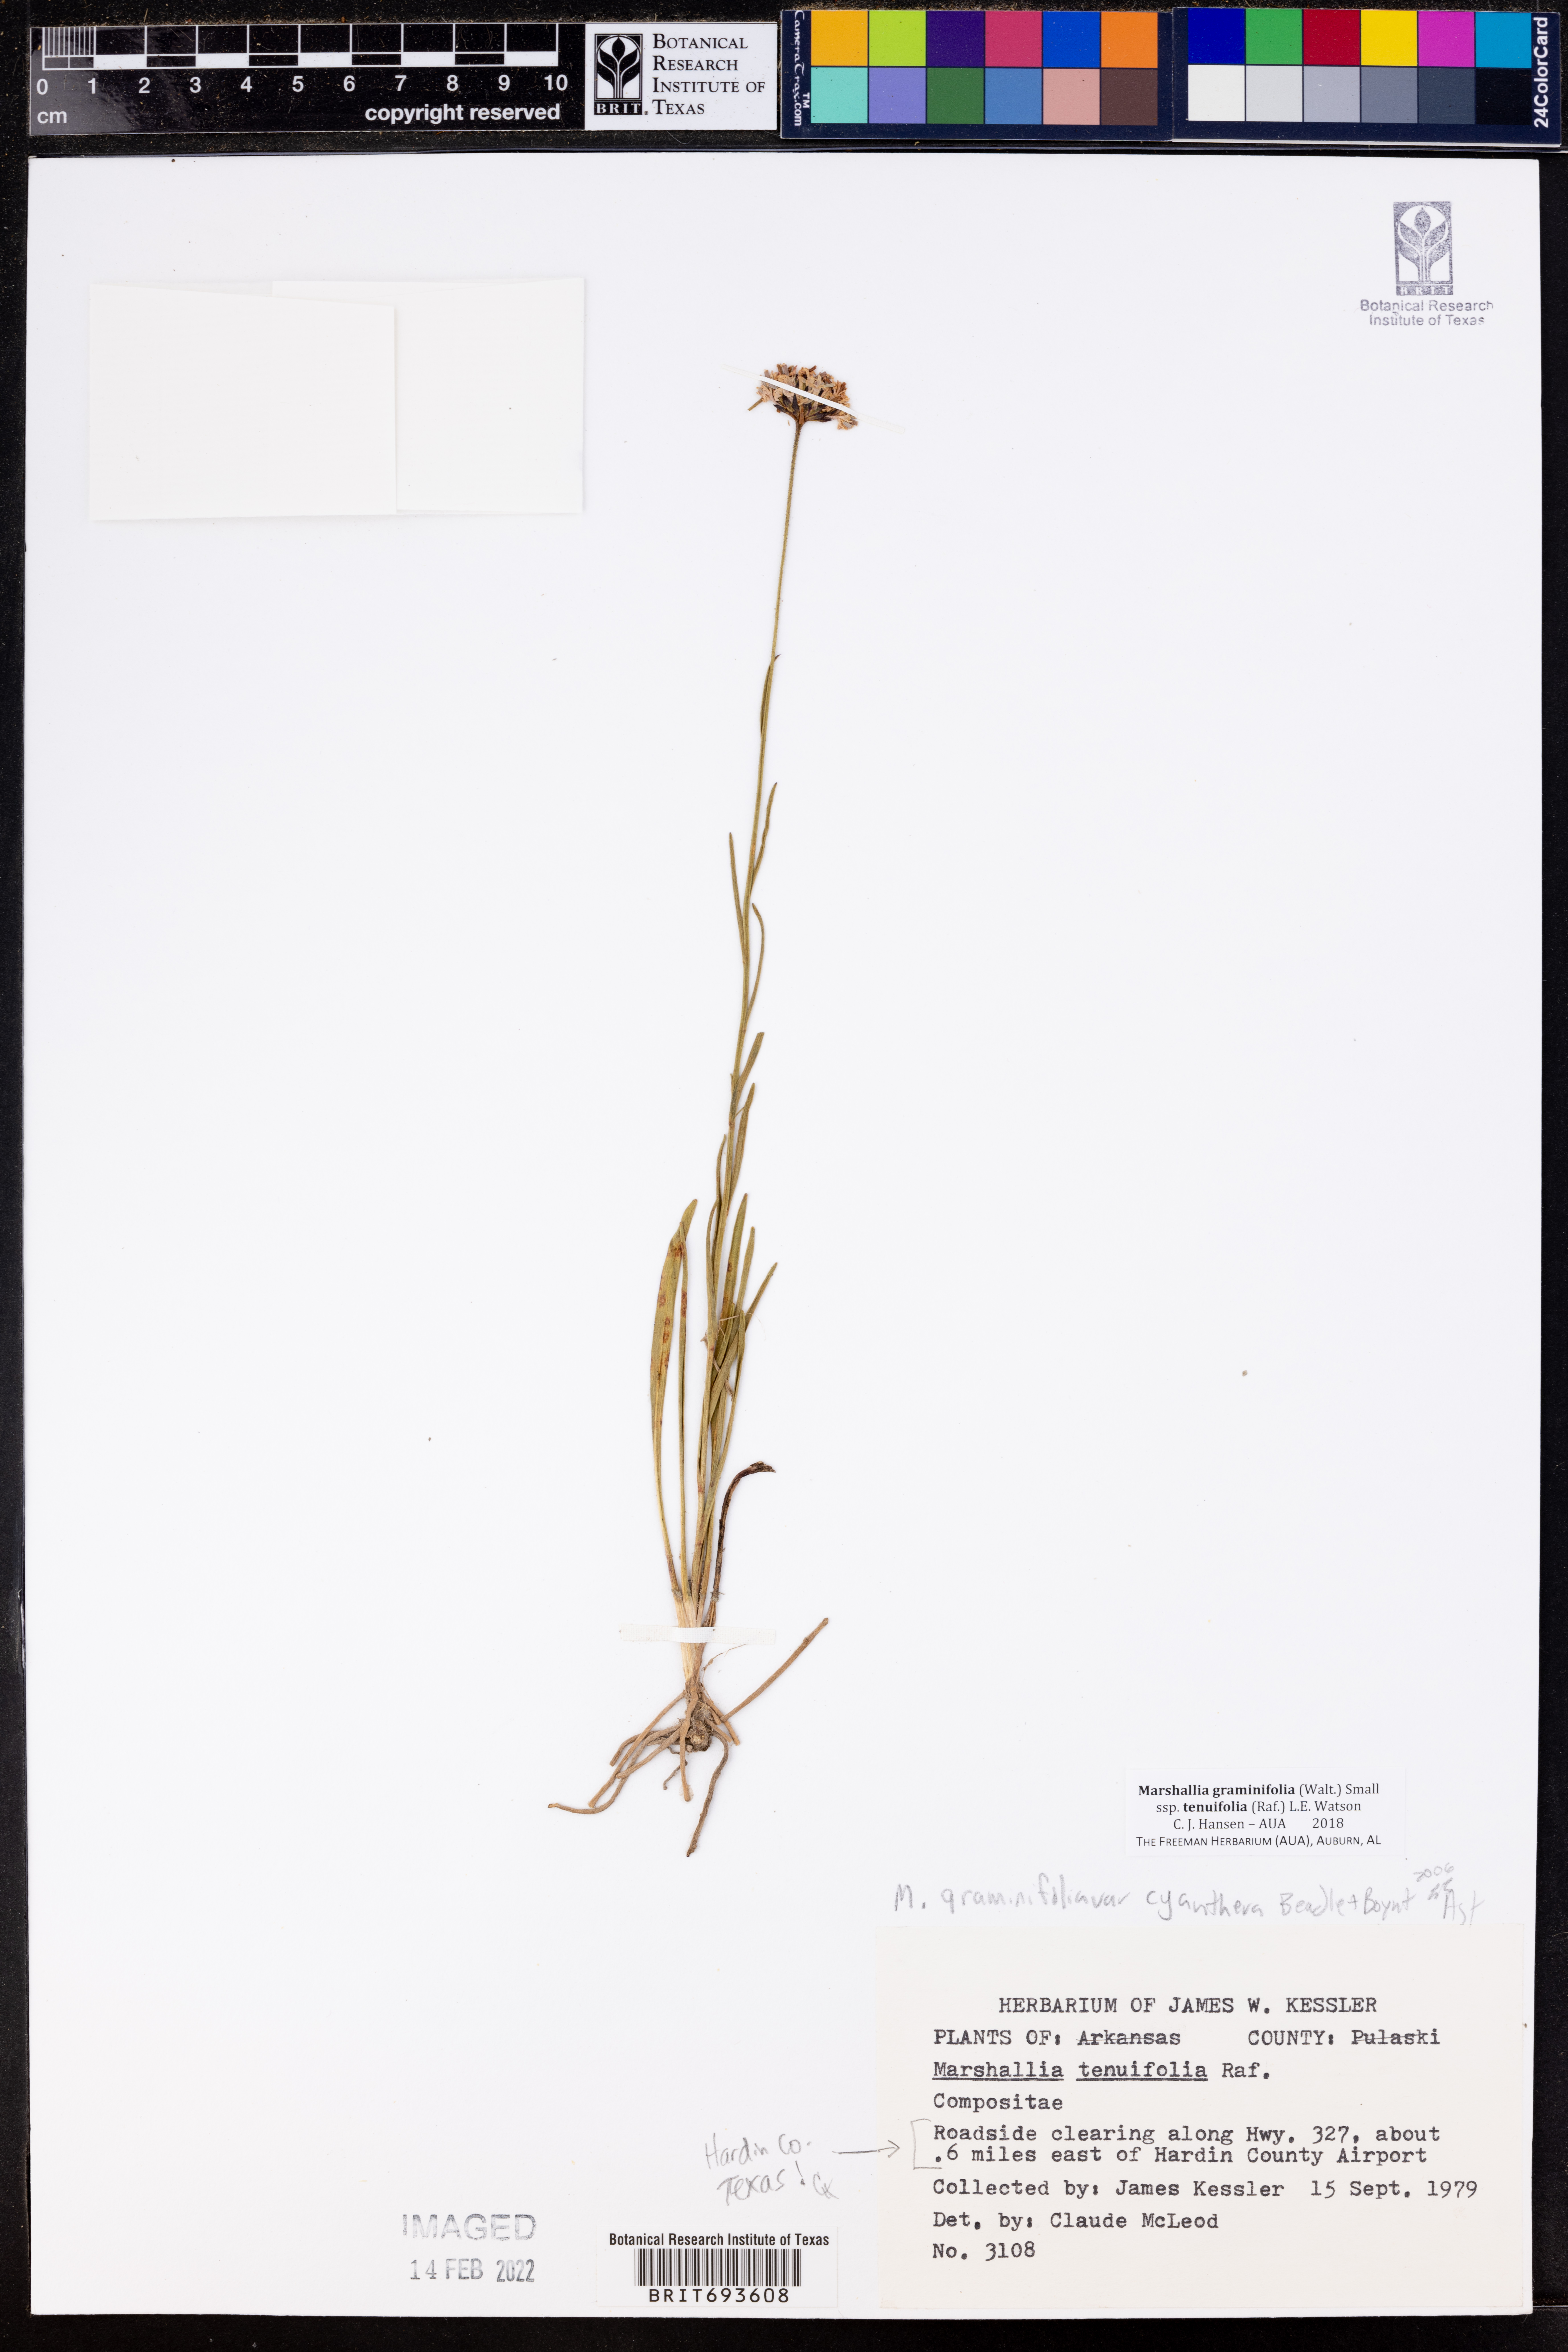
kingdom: Plantae
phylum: Tracheophyta
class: Magnoliopsida
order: Asterales
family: Asteraceae
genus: Marshallia
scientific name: Marshallia graminifolia
